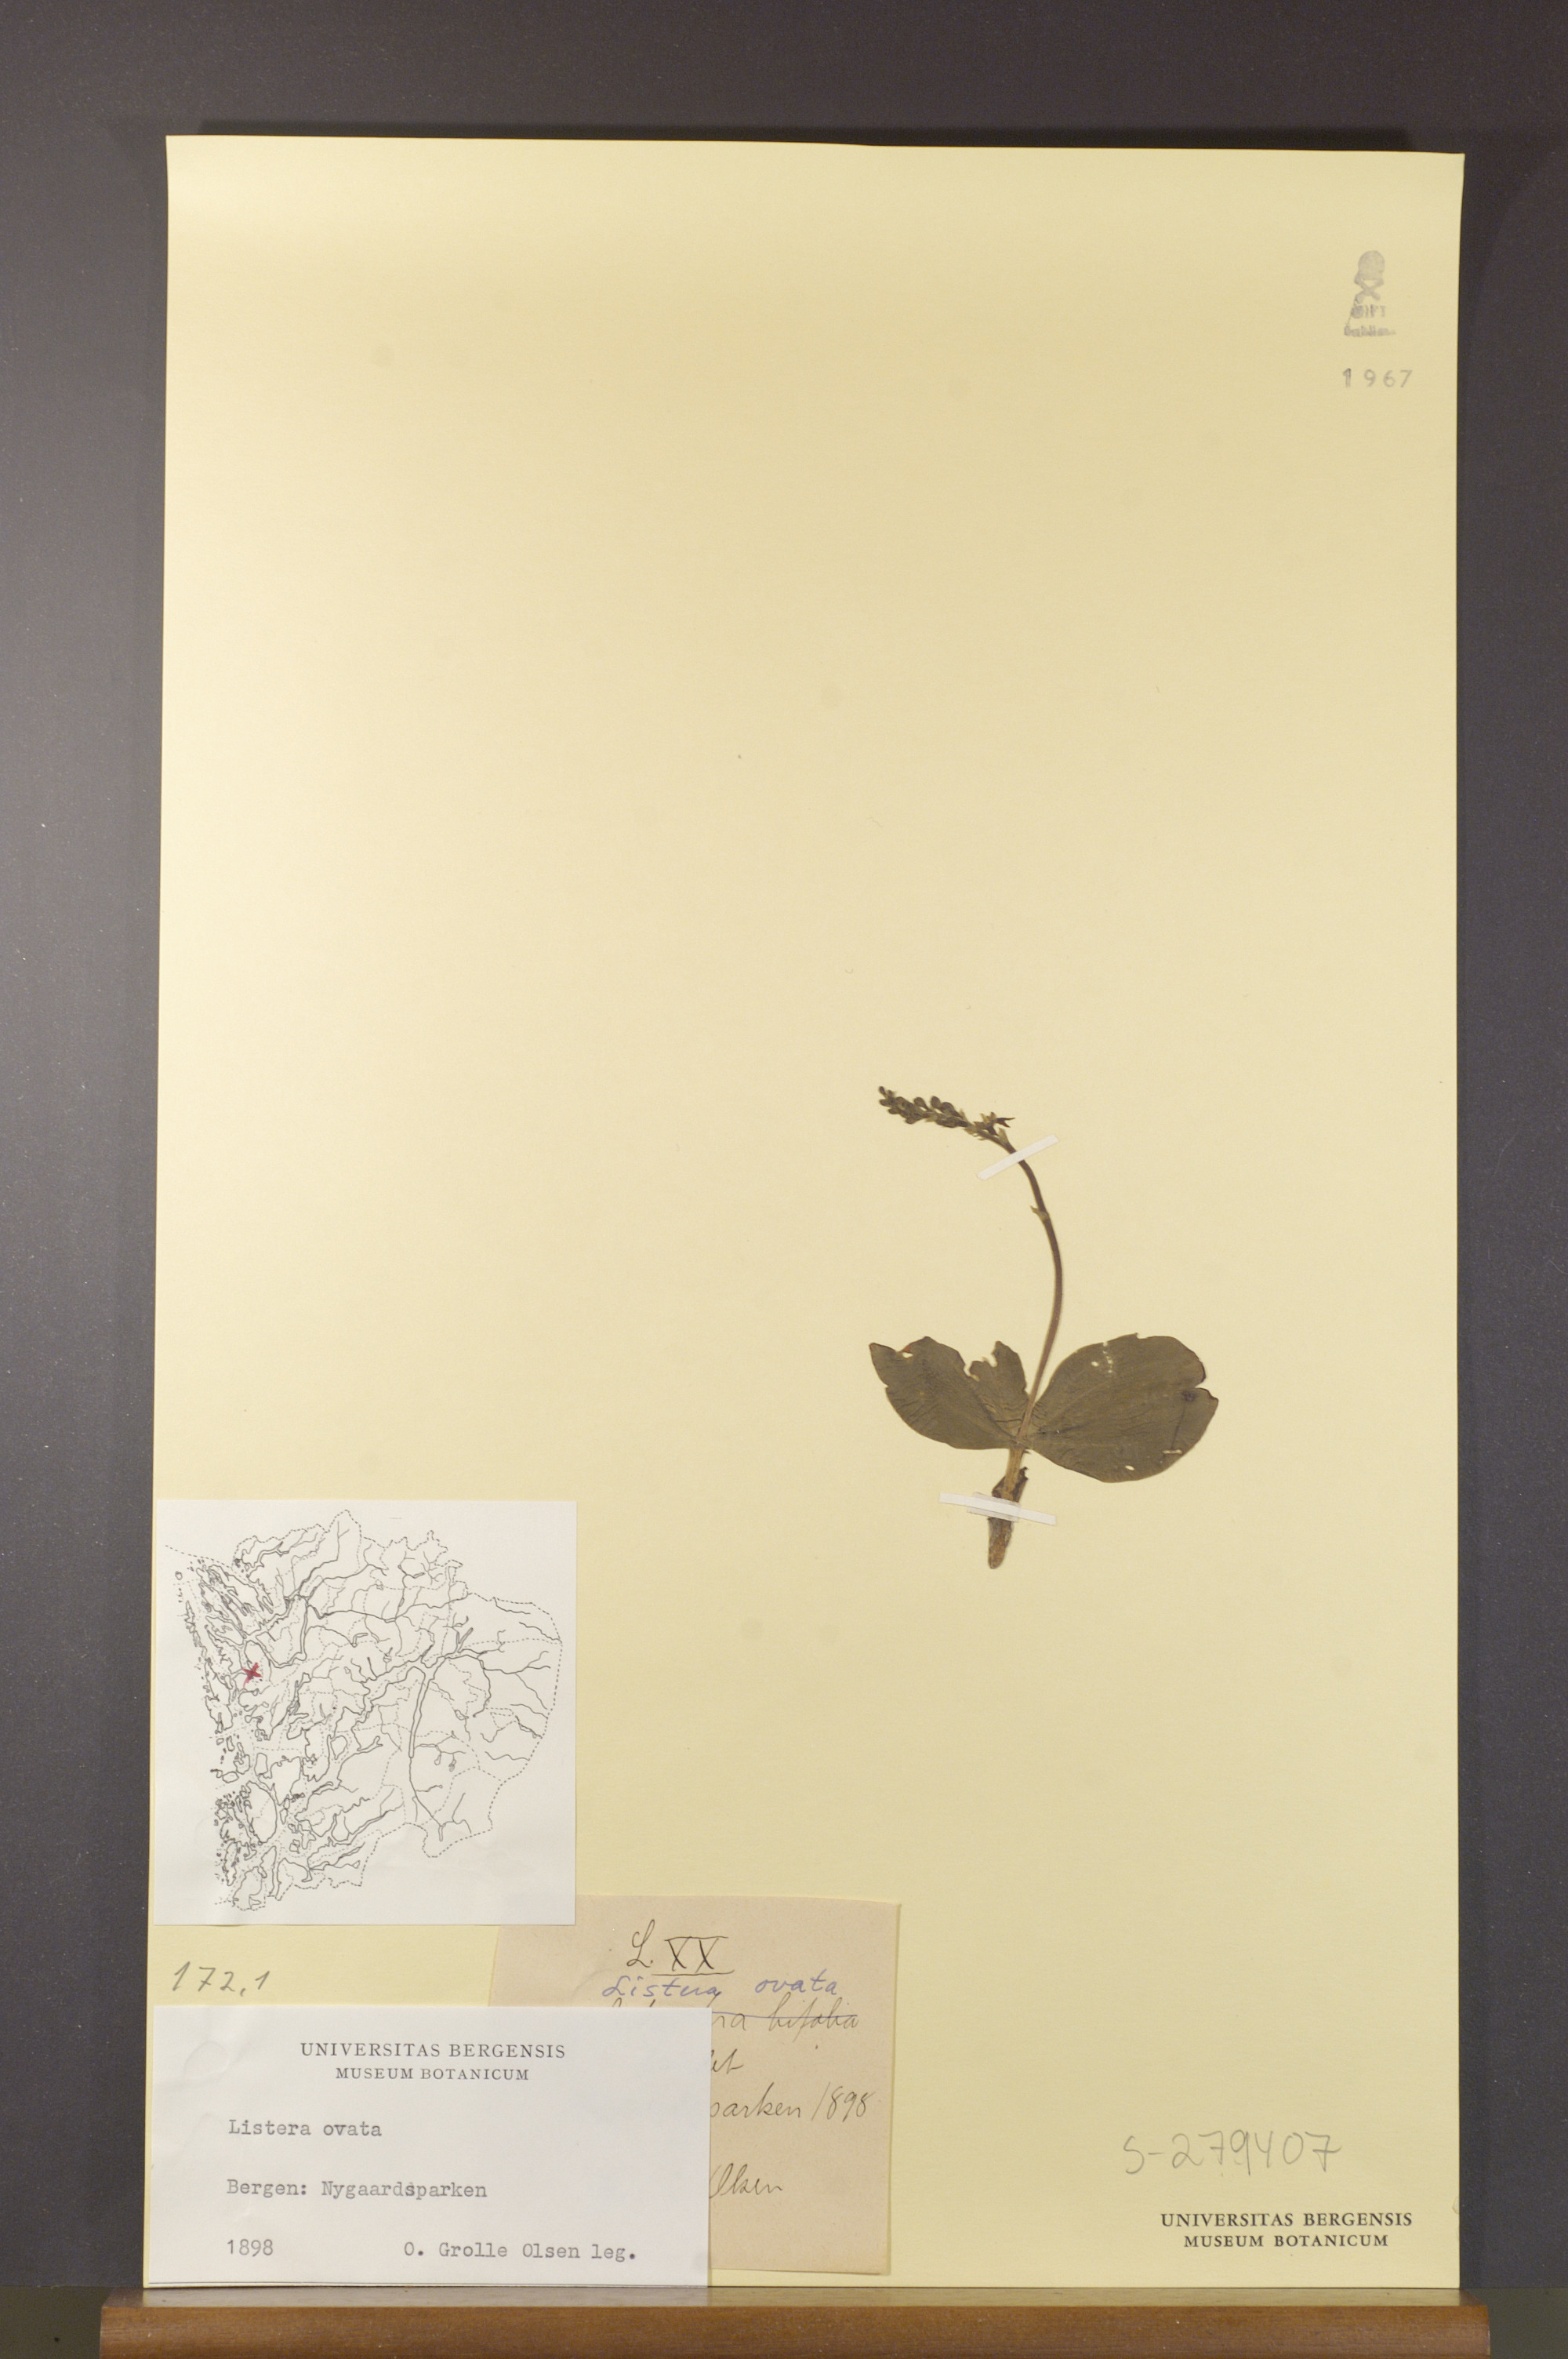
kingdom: Plantae
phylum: Tracheophyta
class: Liliopsida
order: Asparagales
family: Orchidaceae
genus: Neottia
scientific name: Neottia ovata
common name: Common twayblade
